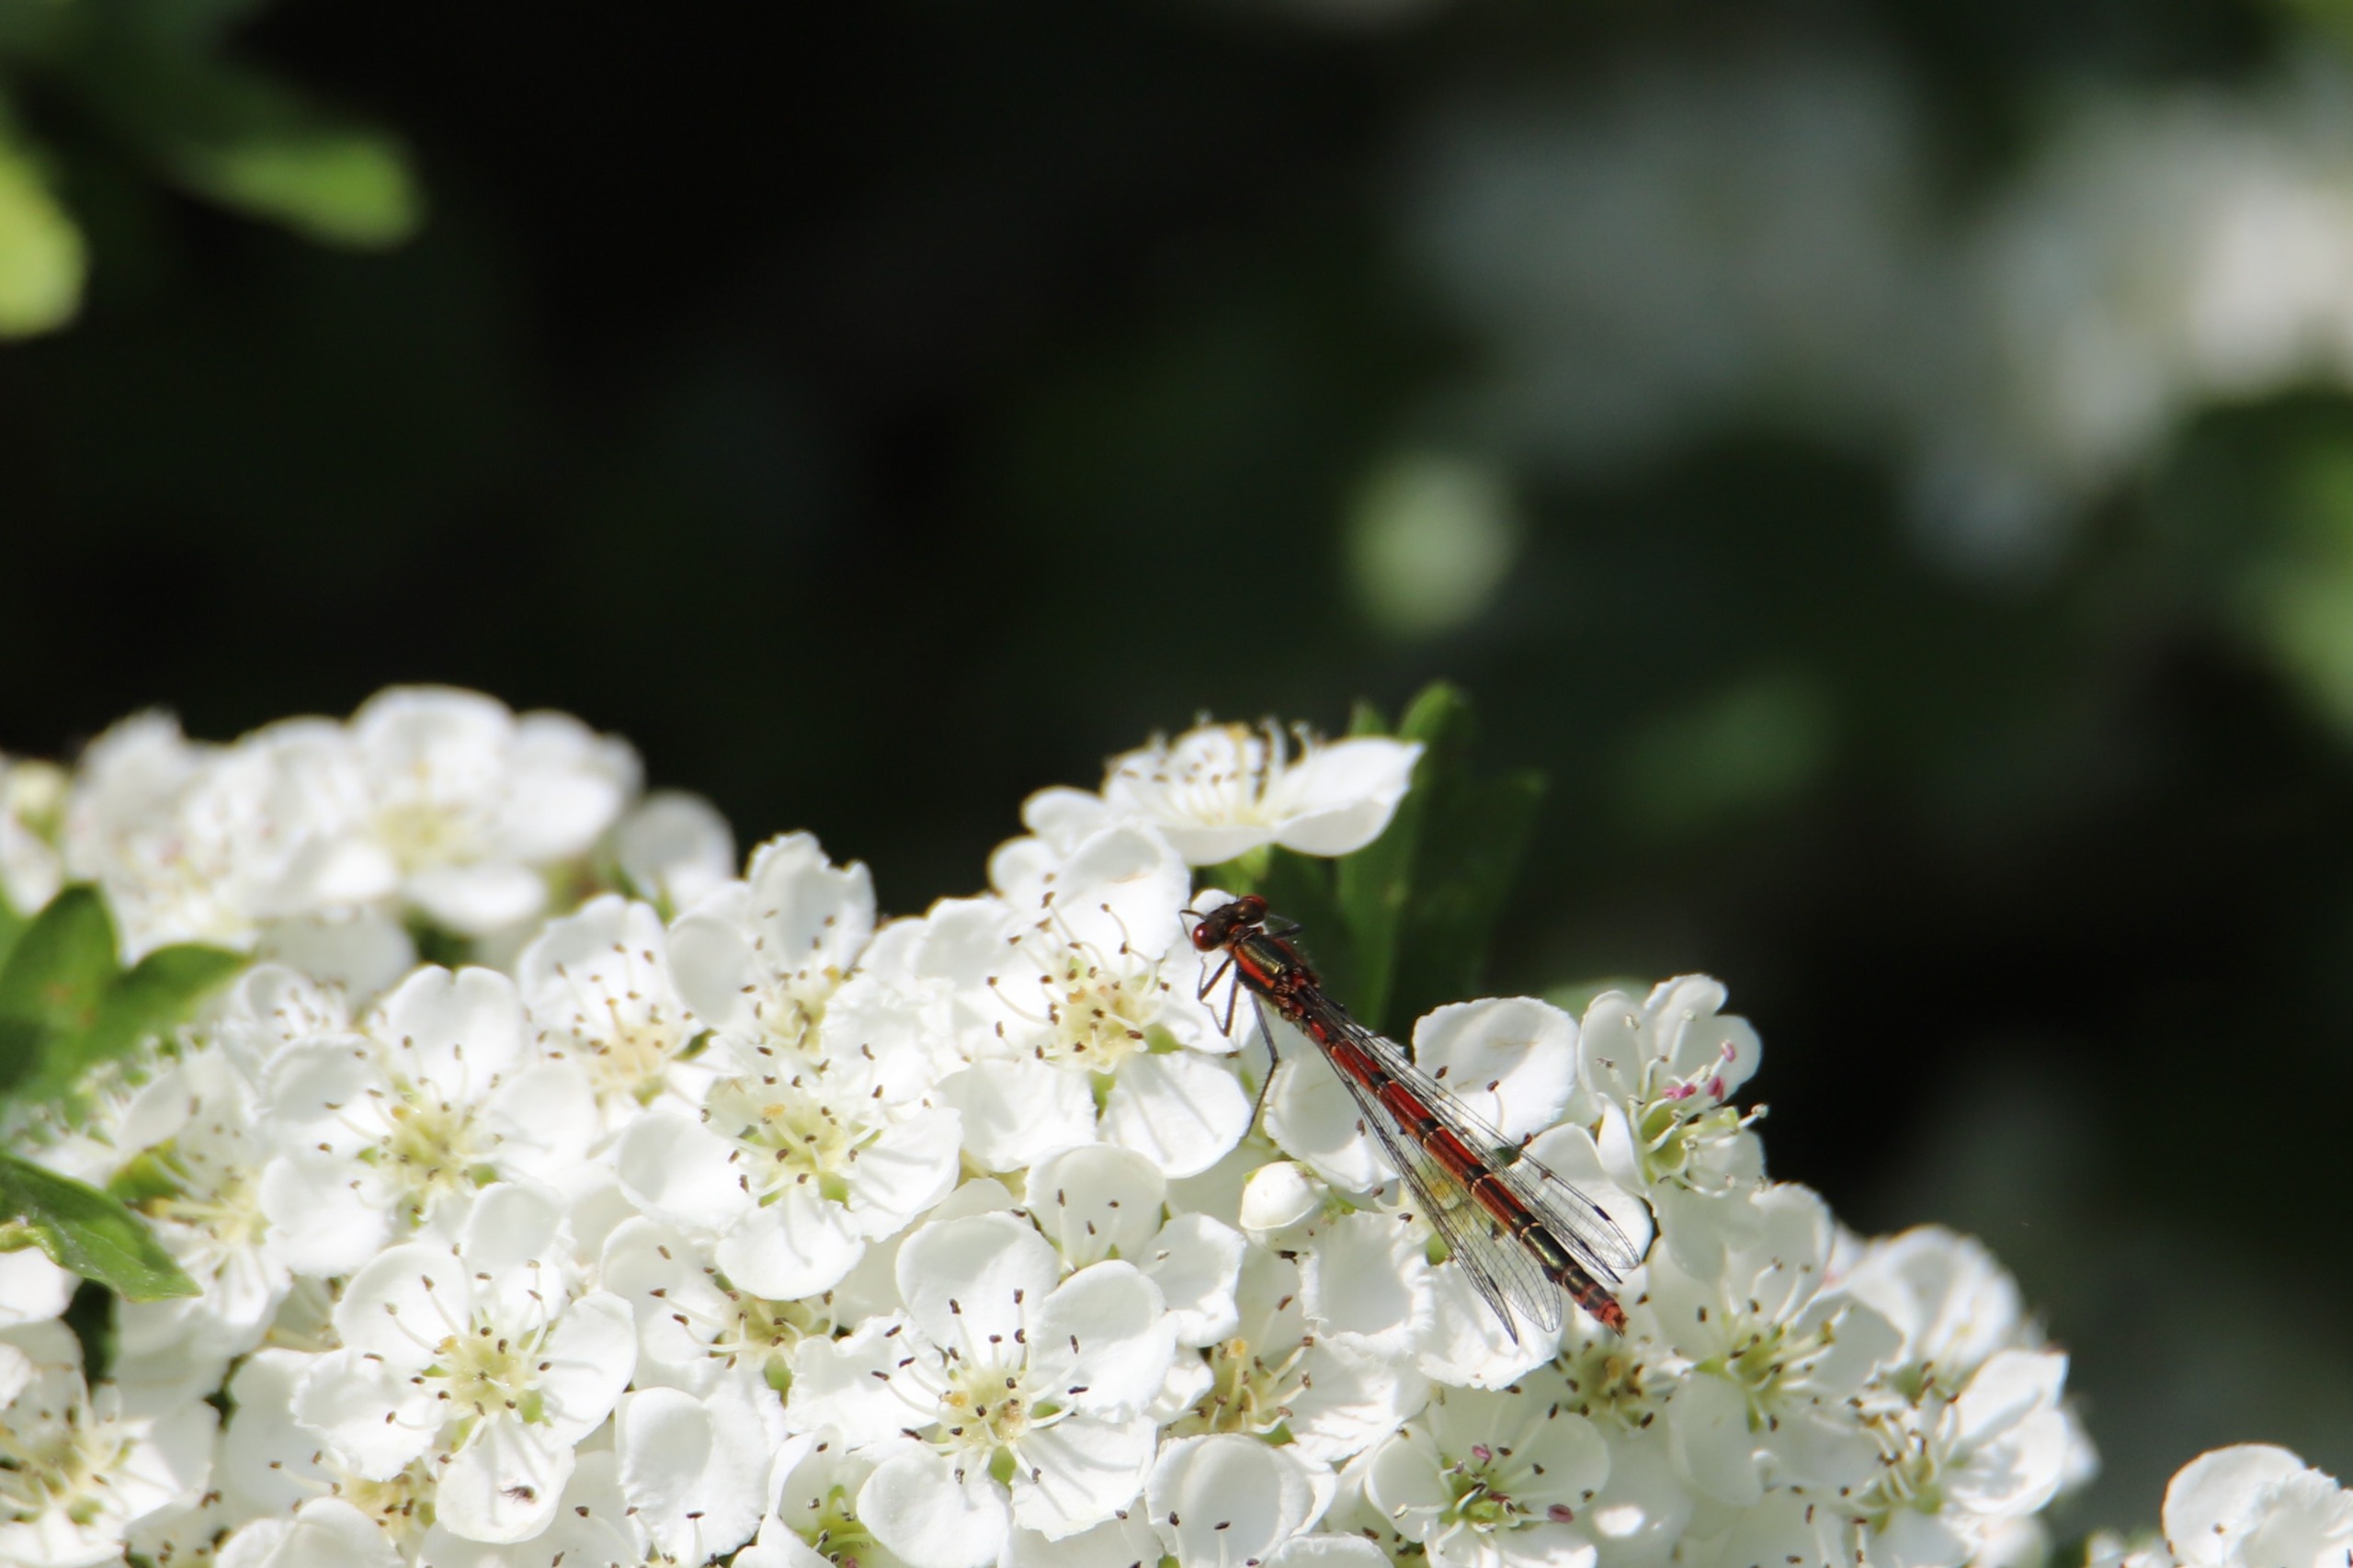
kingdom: Animalia
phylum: Arthropoda
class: Insecta
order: Odonata
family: Coenagrionidae
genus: Pyrrhosoma
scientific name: Pyrrhosoma nymphula
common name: Rød vandnymfe
